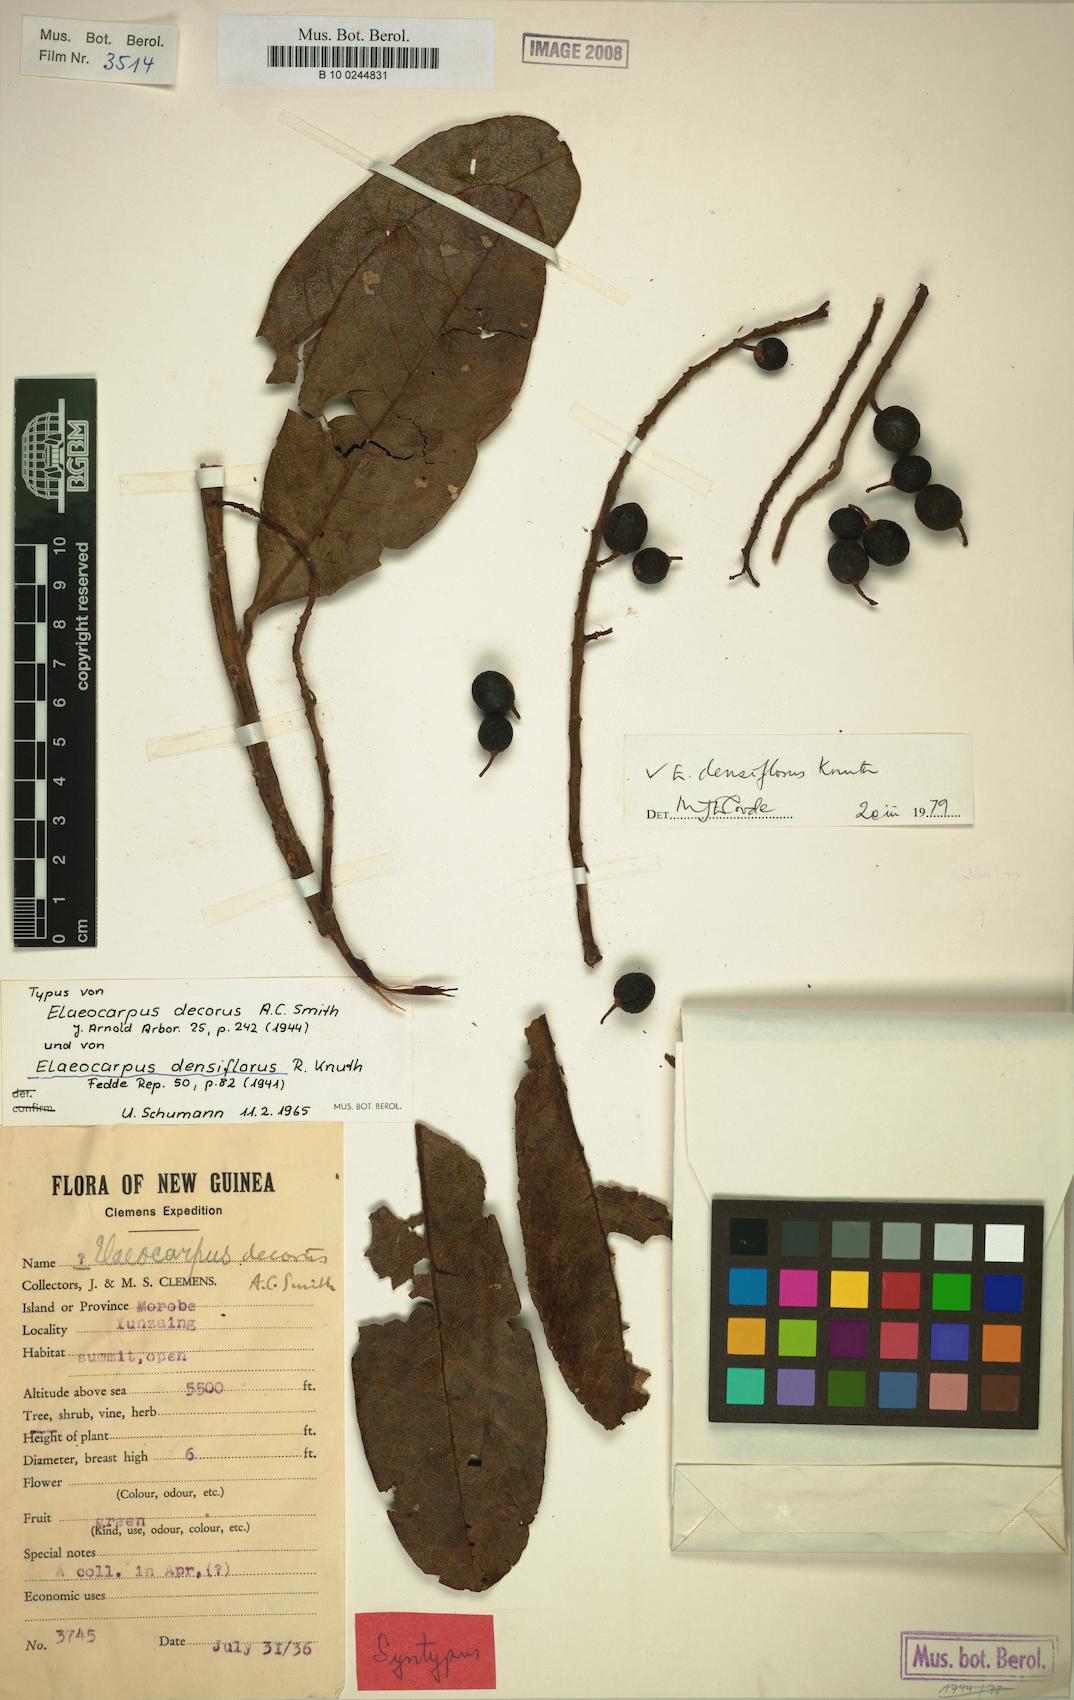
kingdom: Plantae
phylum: Tracheophyta
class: Magnoliopsida
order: Oxalidales
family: Elaeocarpaceae
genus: Elaeocarpus
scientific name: Elaeocarpus densiflorus
